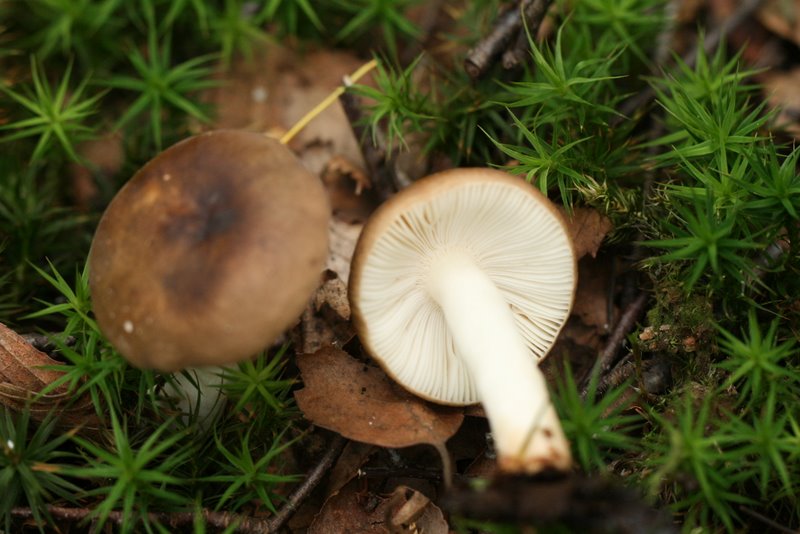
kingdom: Fungi
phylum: Basidiomycota
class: Agaricomycetes
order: Russulales
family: Russulaceae
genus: Russula
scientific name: Russula mustelina
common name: brun skørhat
